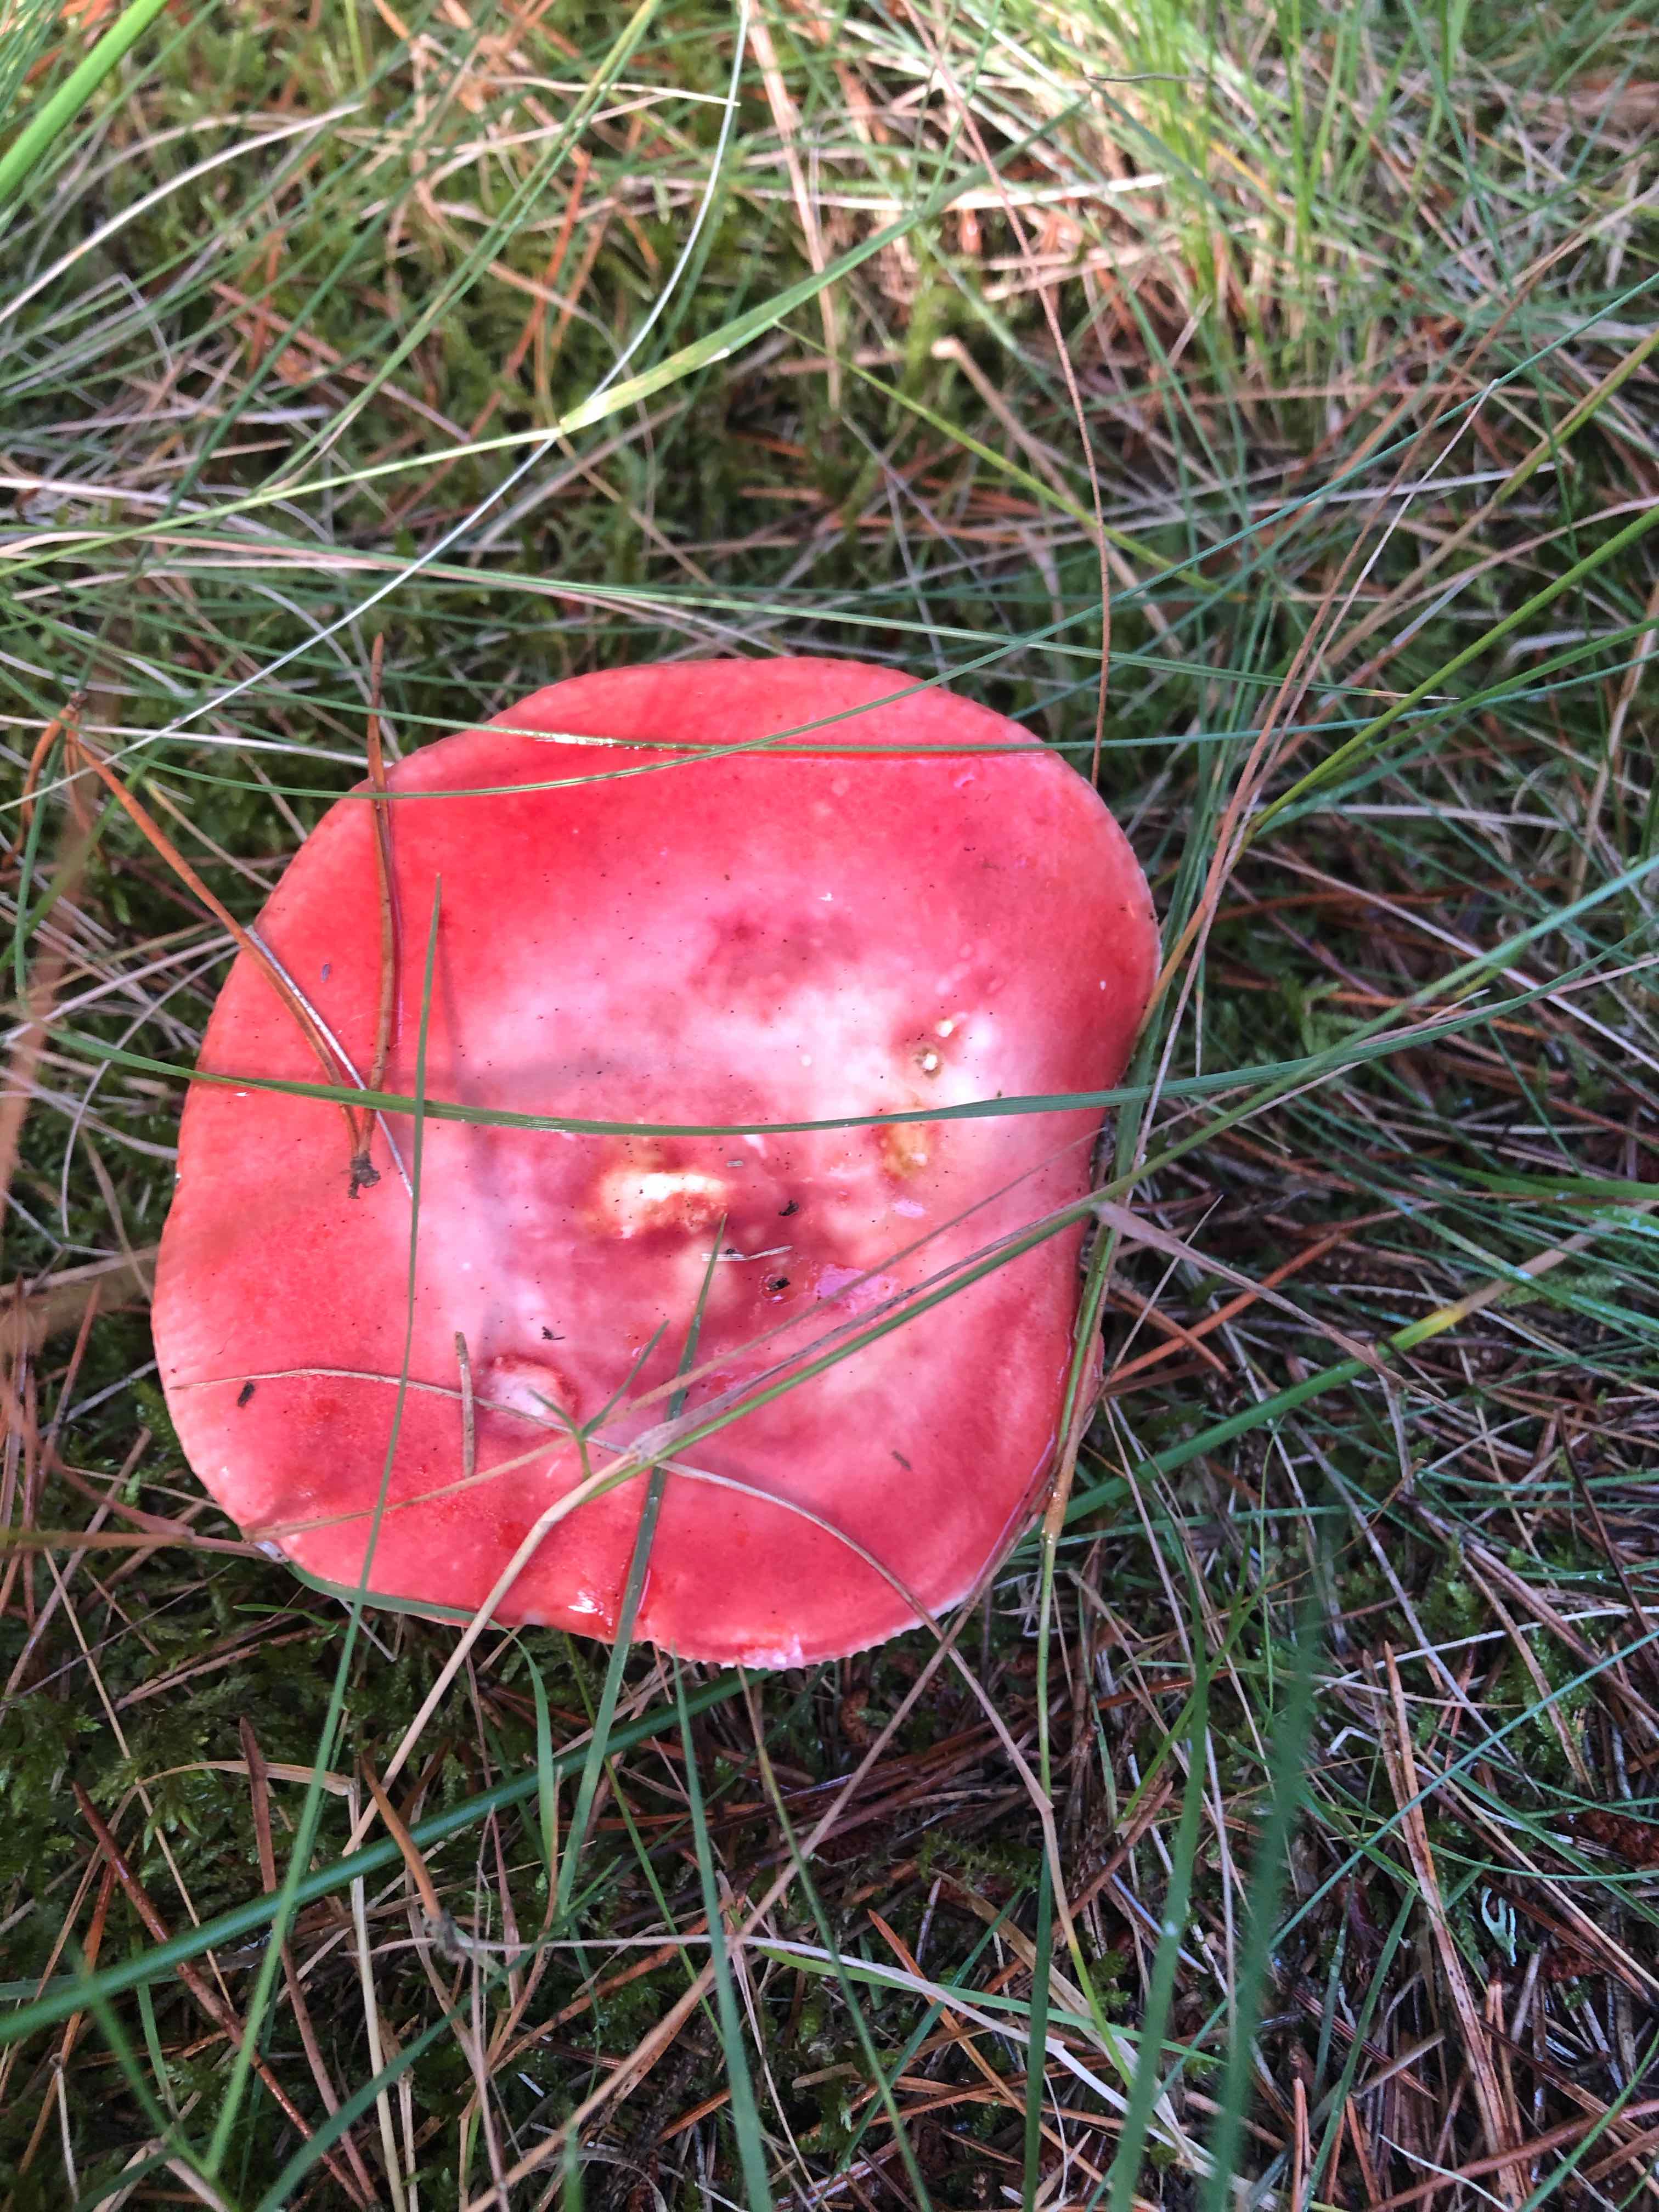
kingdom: Fungi
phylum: Basidiomycota
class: Agaricomycetes
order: Russulales
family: Russulaceae
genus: Russula
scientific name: Russula emetica
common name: stor gift-skørhat
